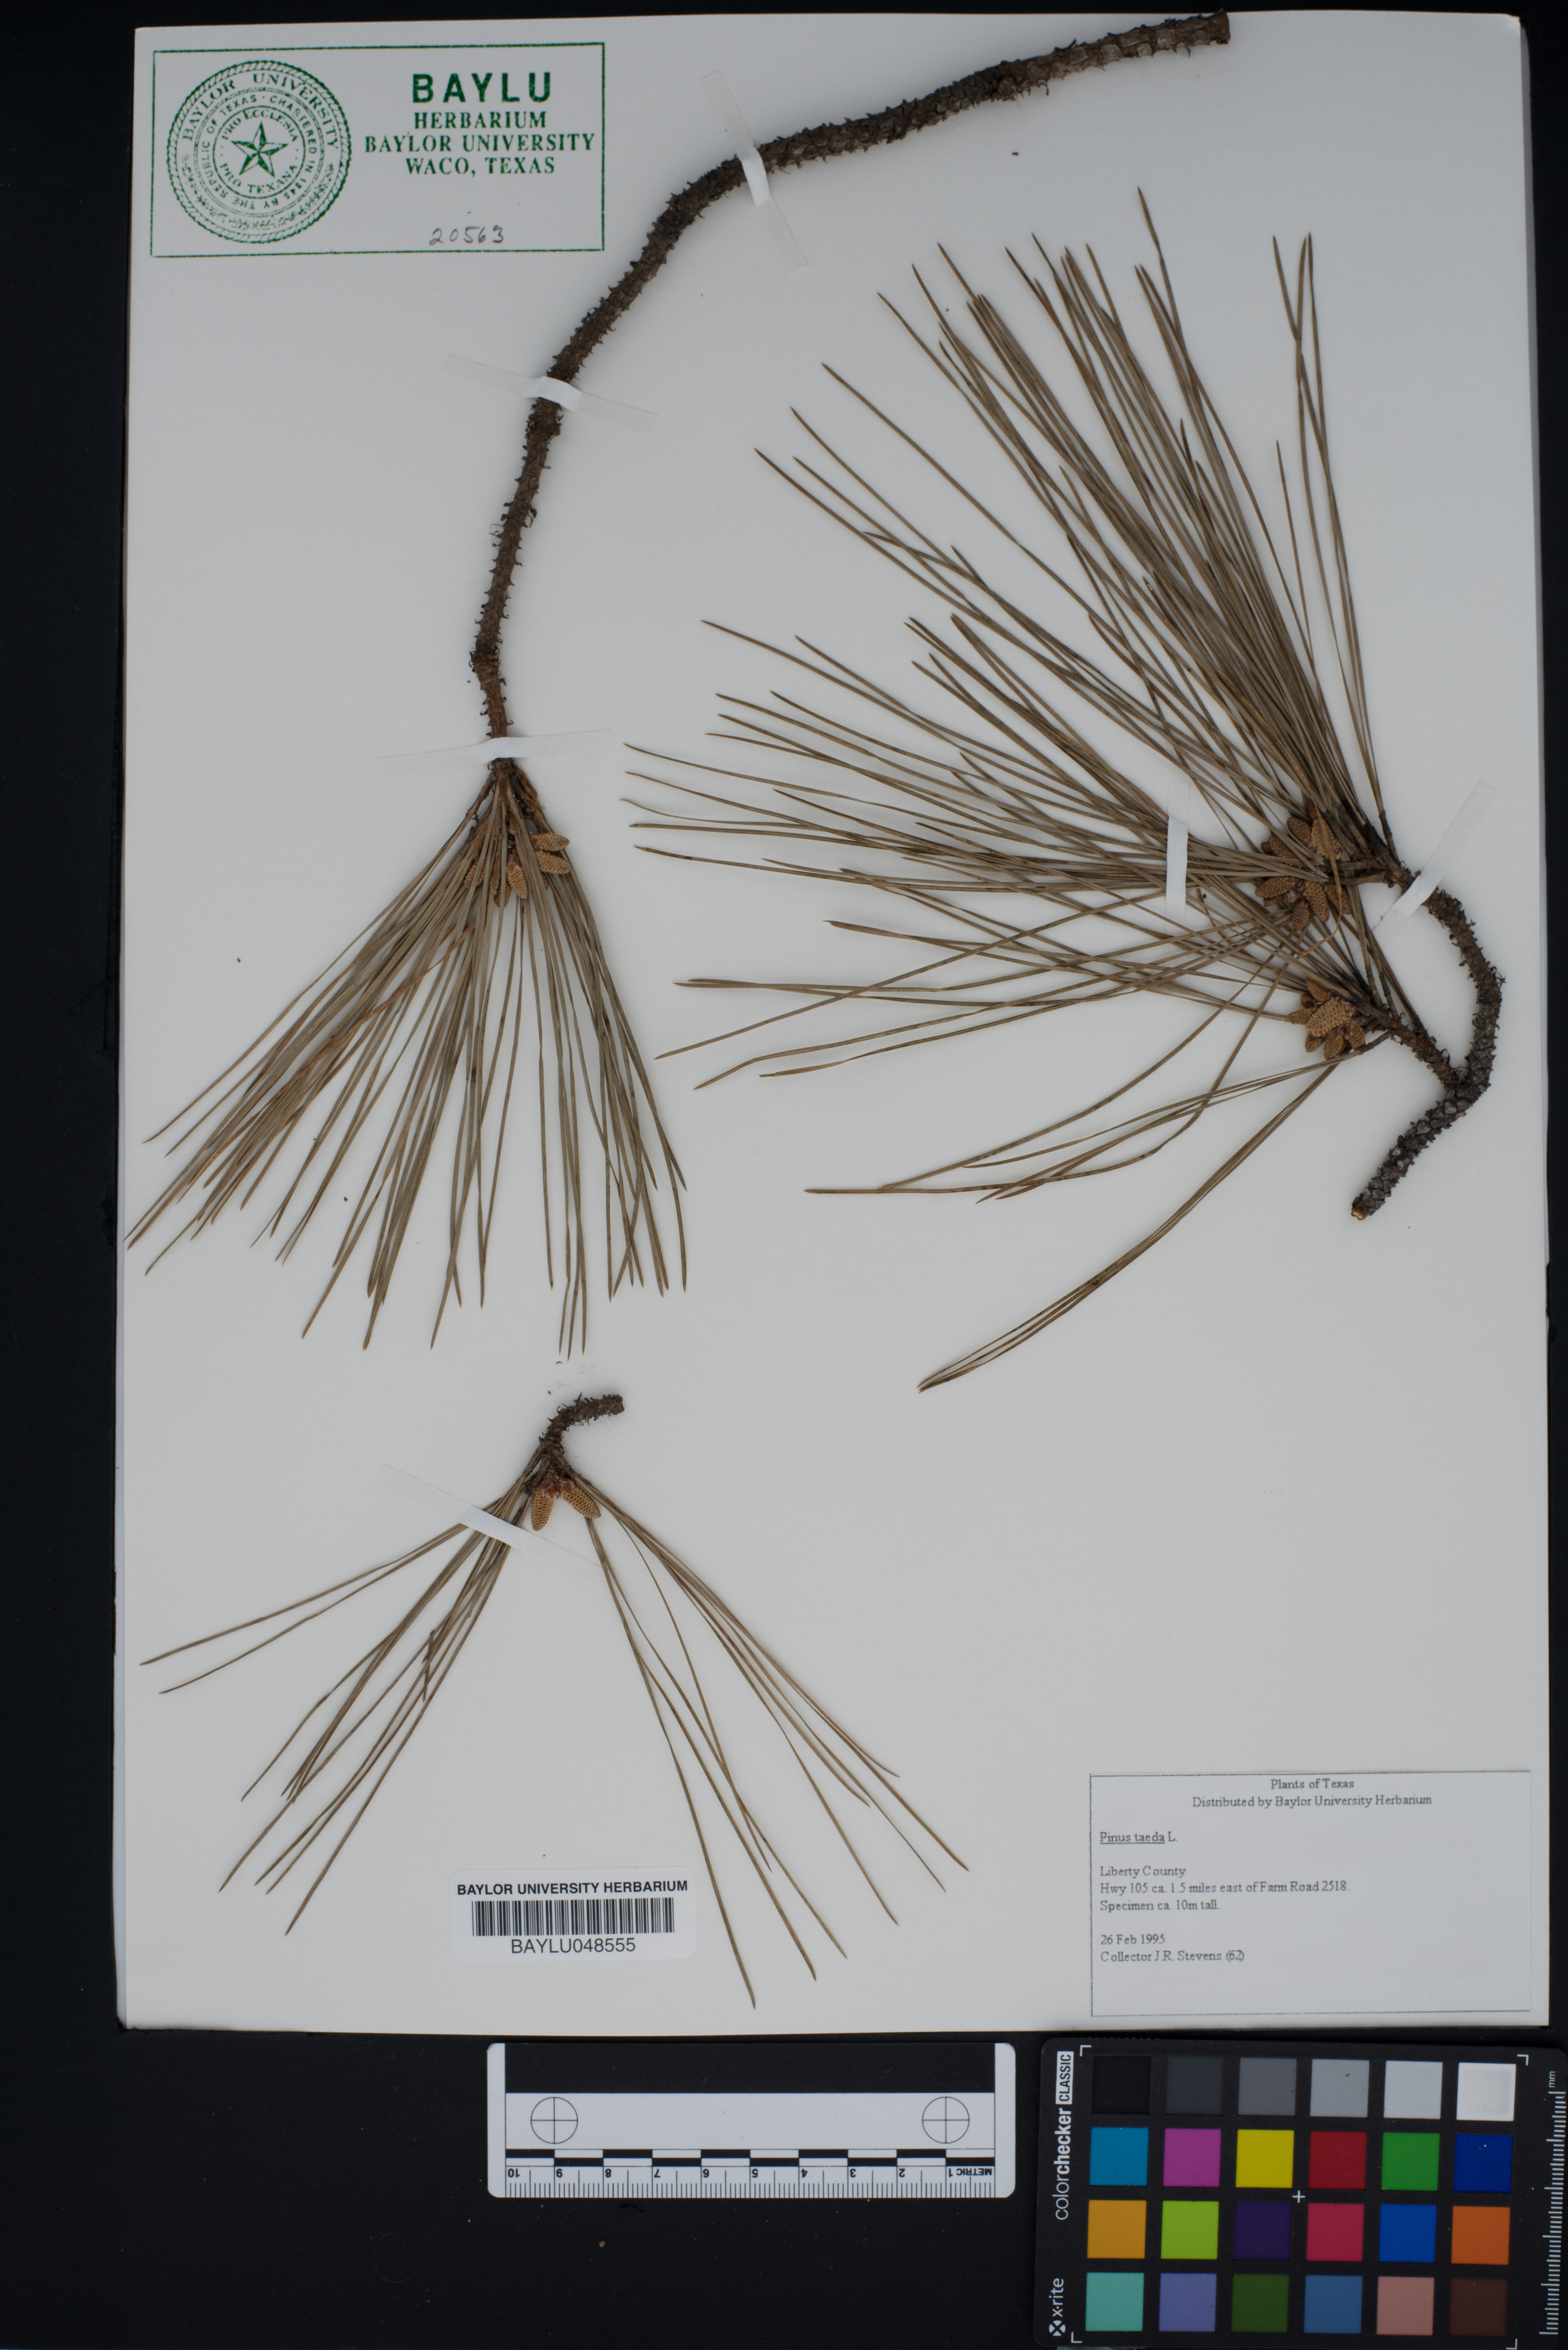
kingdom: Plantae
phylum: Tracheophyta
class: Pinopsida
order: Pinales
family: Pinaceae
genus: Pinus
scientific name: Pinus taeda
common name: Loblolly pine
